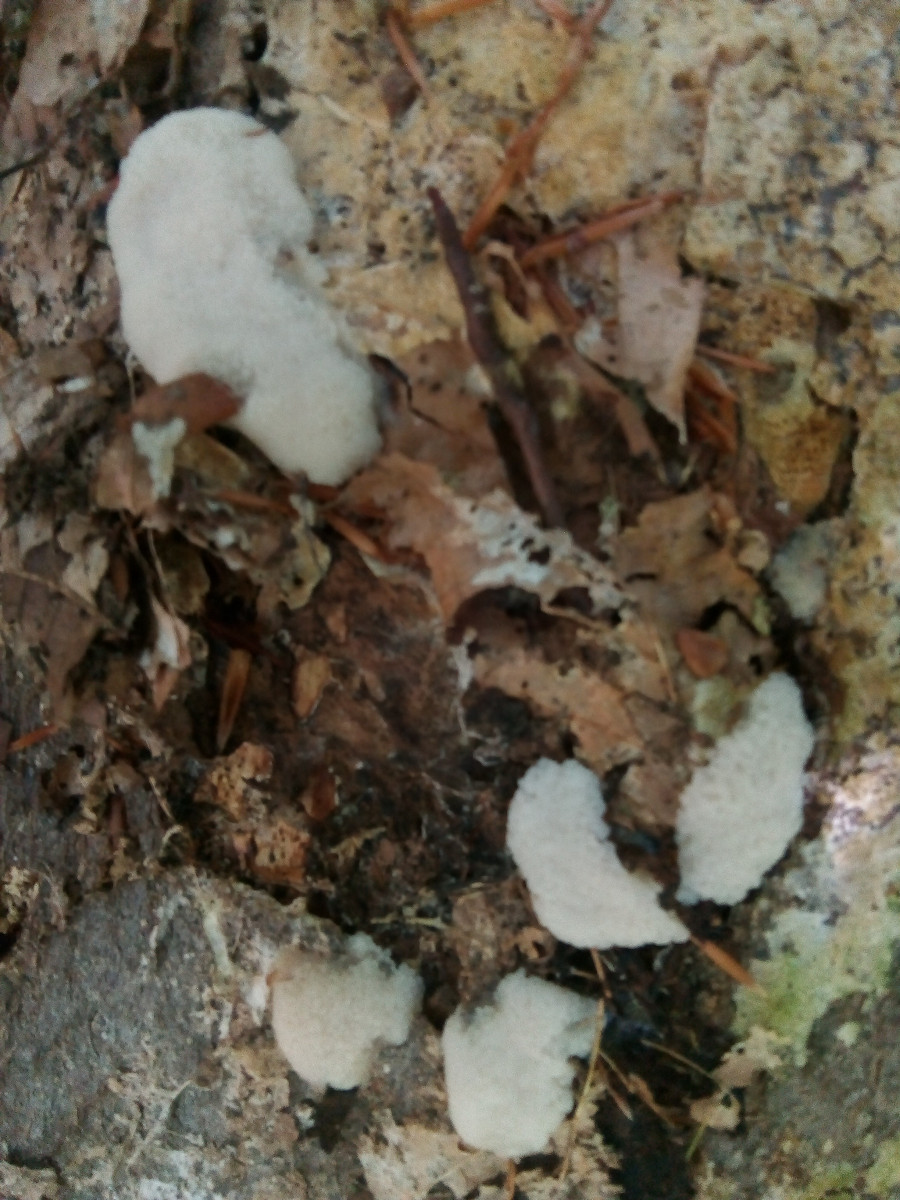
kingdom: Protozoa
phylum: Mycetozoa
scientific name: Mycetozoa
